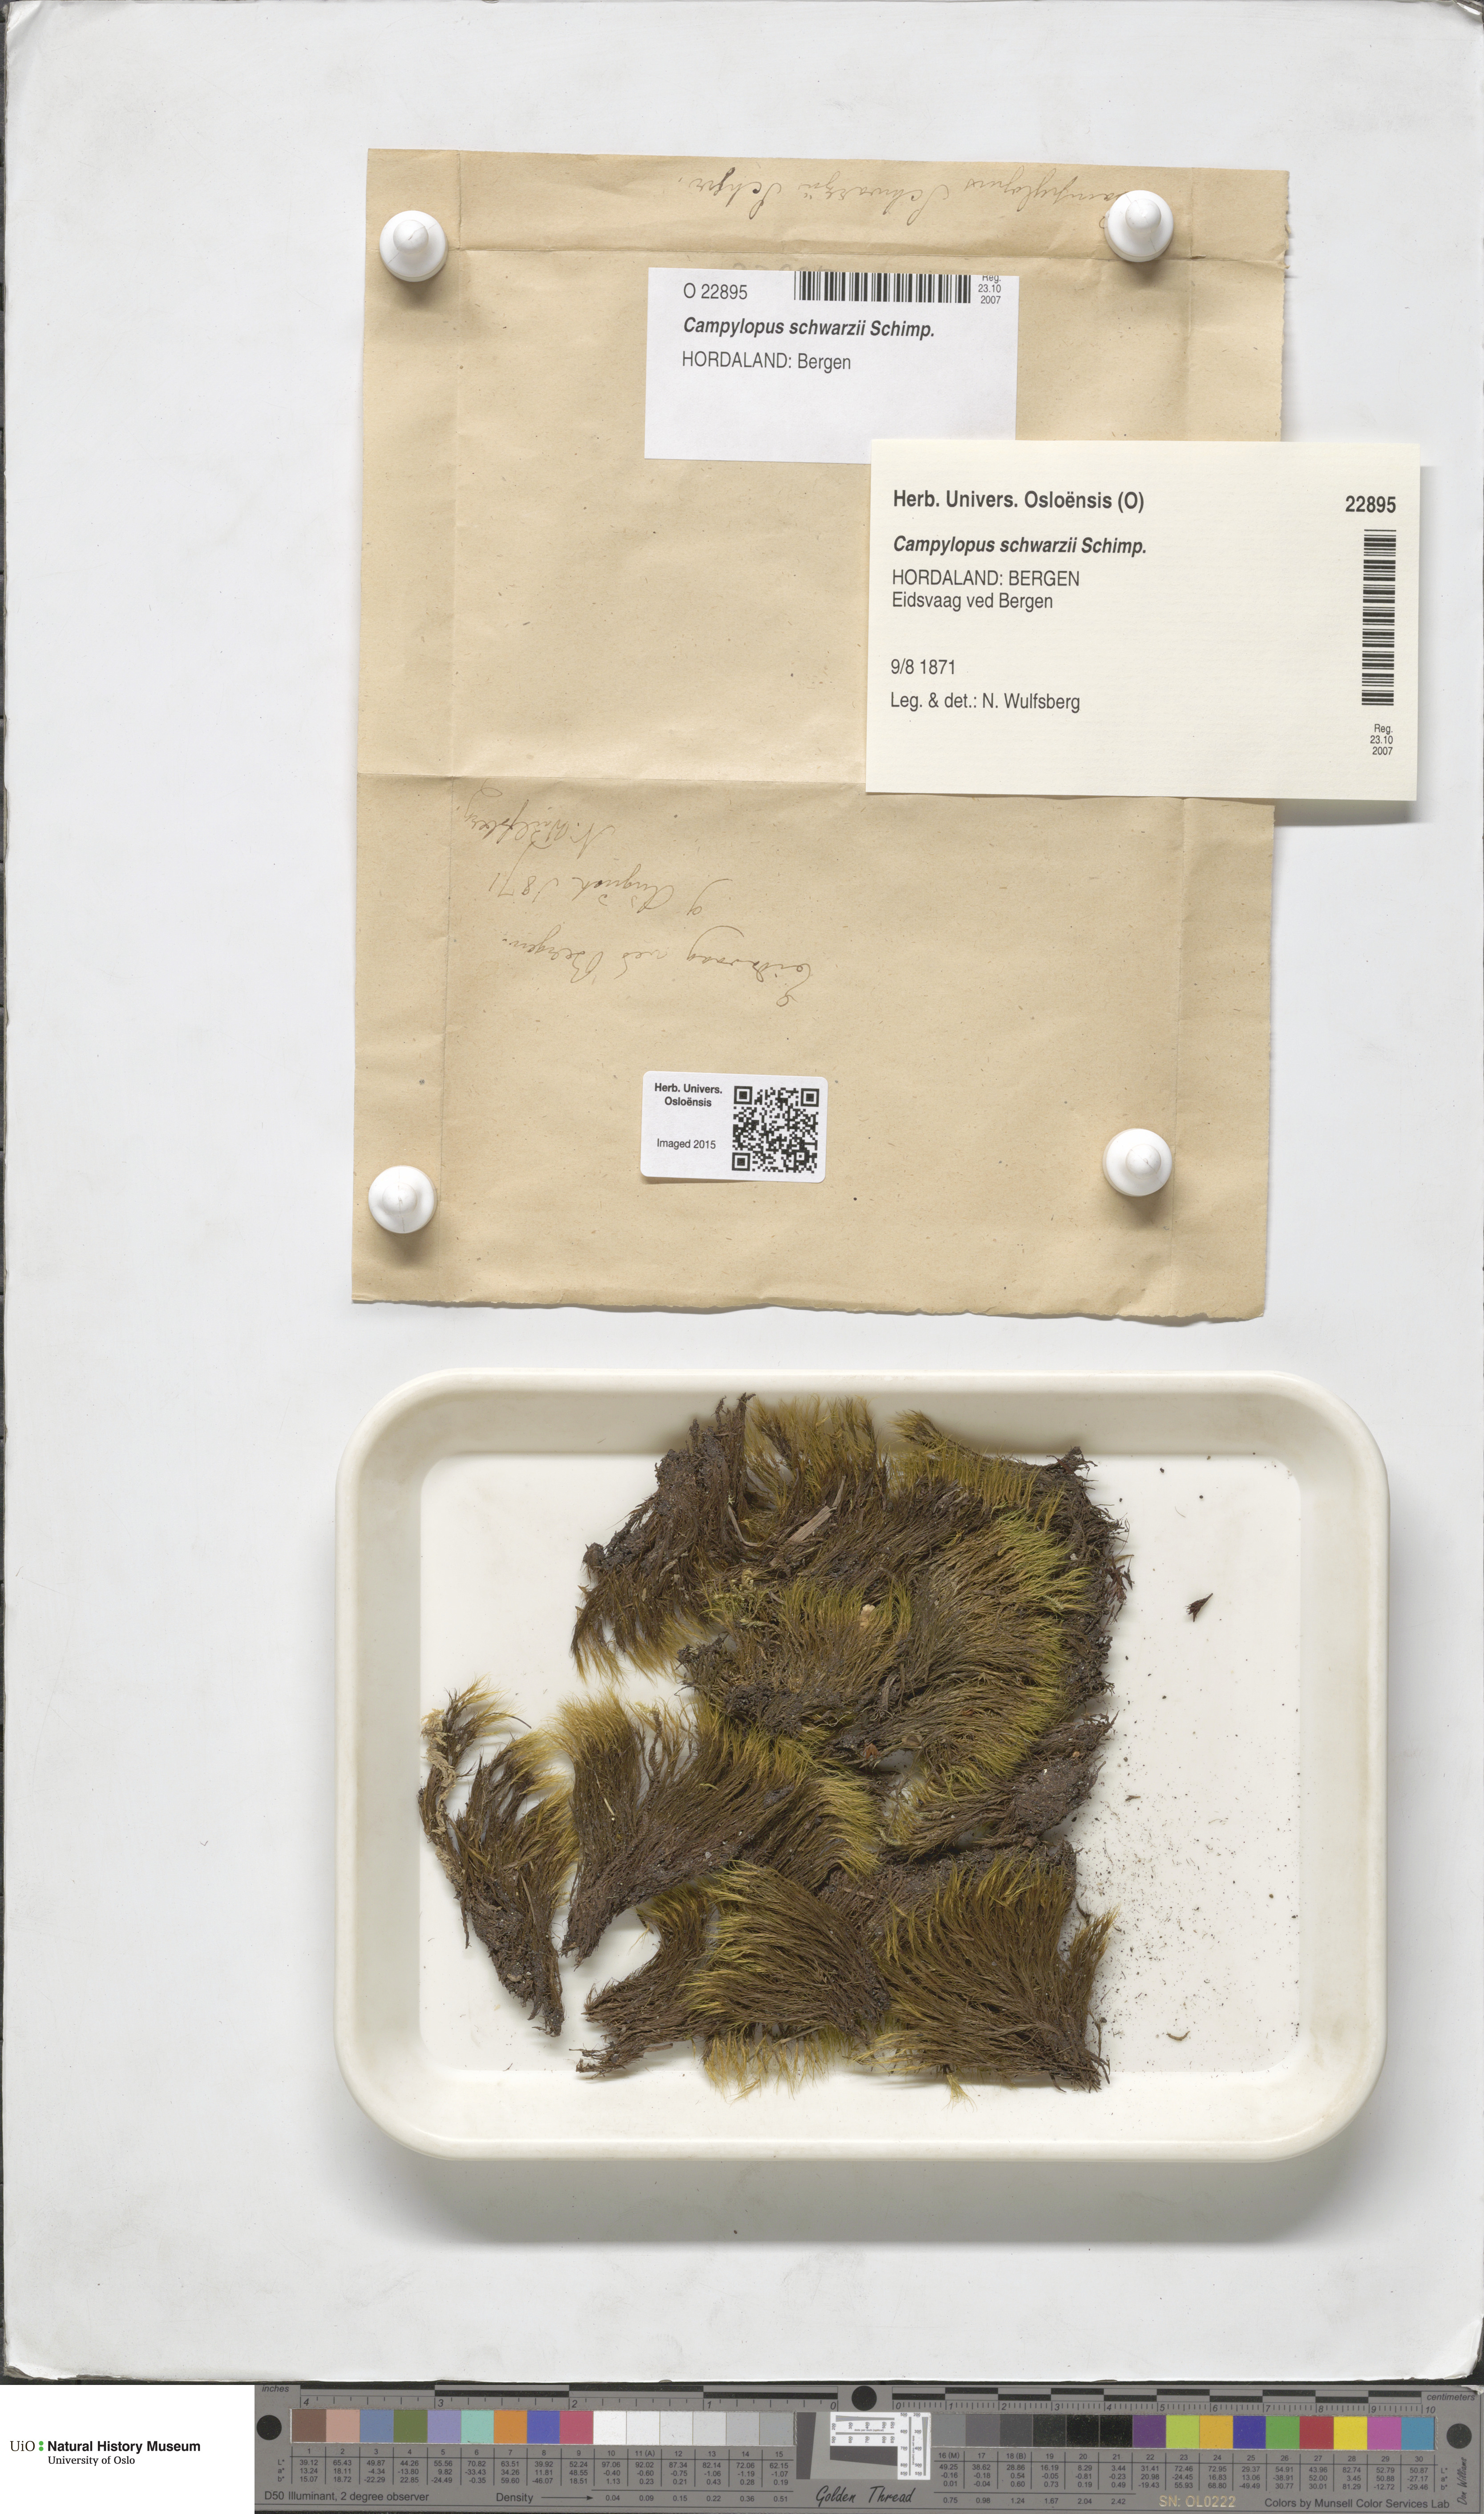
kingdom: Plantae
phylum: Bryophyta
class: Bryopsida
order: Dicranales
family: Leucobryaceae
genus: Campylopus
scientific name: Campylopus gracilis
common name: Schwarz's swan-neck moss
